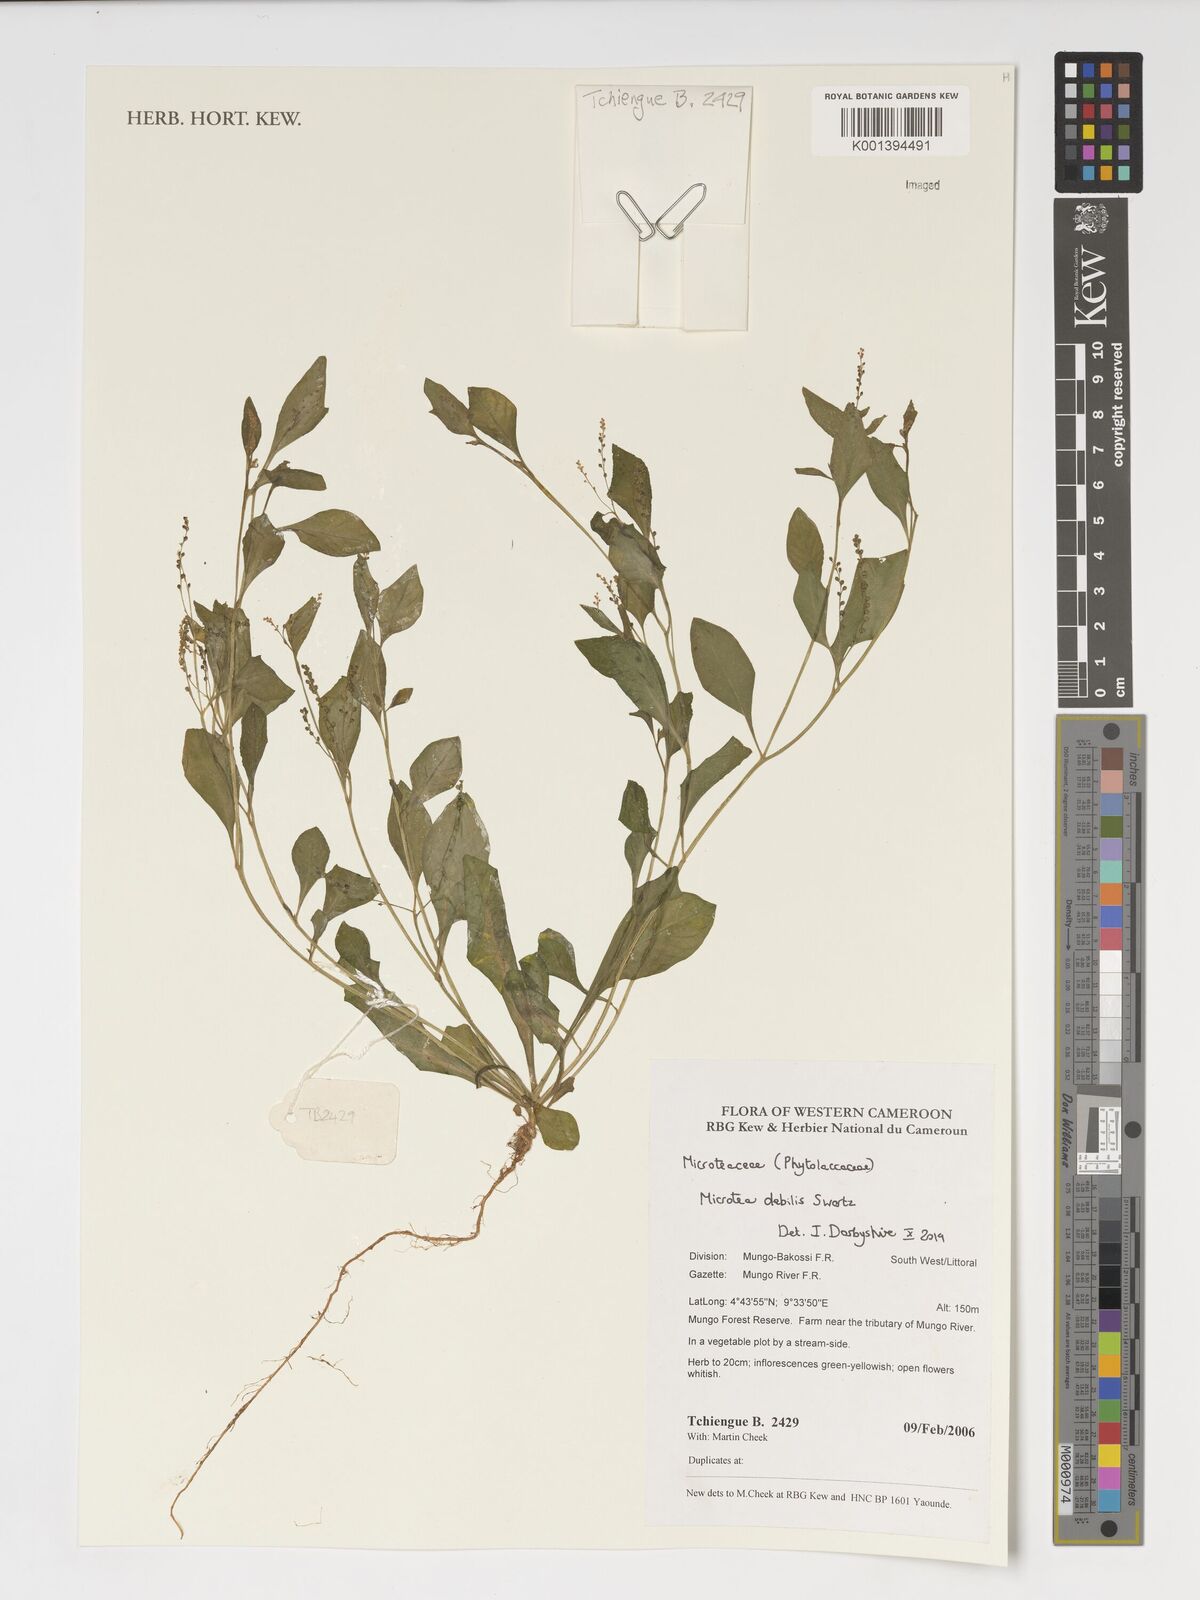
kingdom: Plantae
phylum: Tracheophyta
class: Magnoliopsida
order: Caryophyllales
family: Microteaceae
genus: Microtea
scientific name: Microtea debilis
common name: Weak jumby peppe
